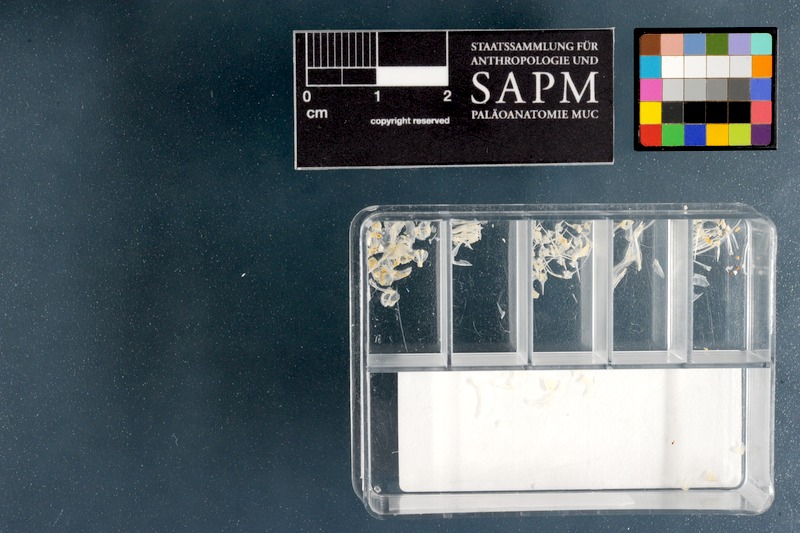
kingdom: Animalia
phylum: Chordata
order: Perciformes
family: Grammatidae
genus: Gramma
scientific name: Gramma loreto
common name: Fairy basslet
